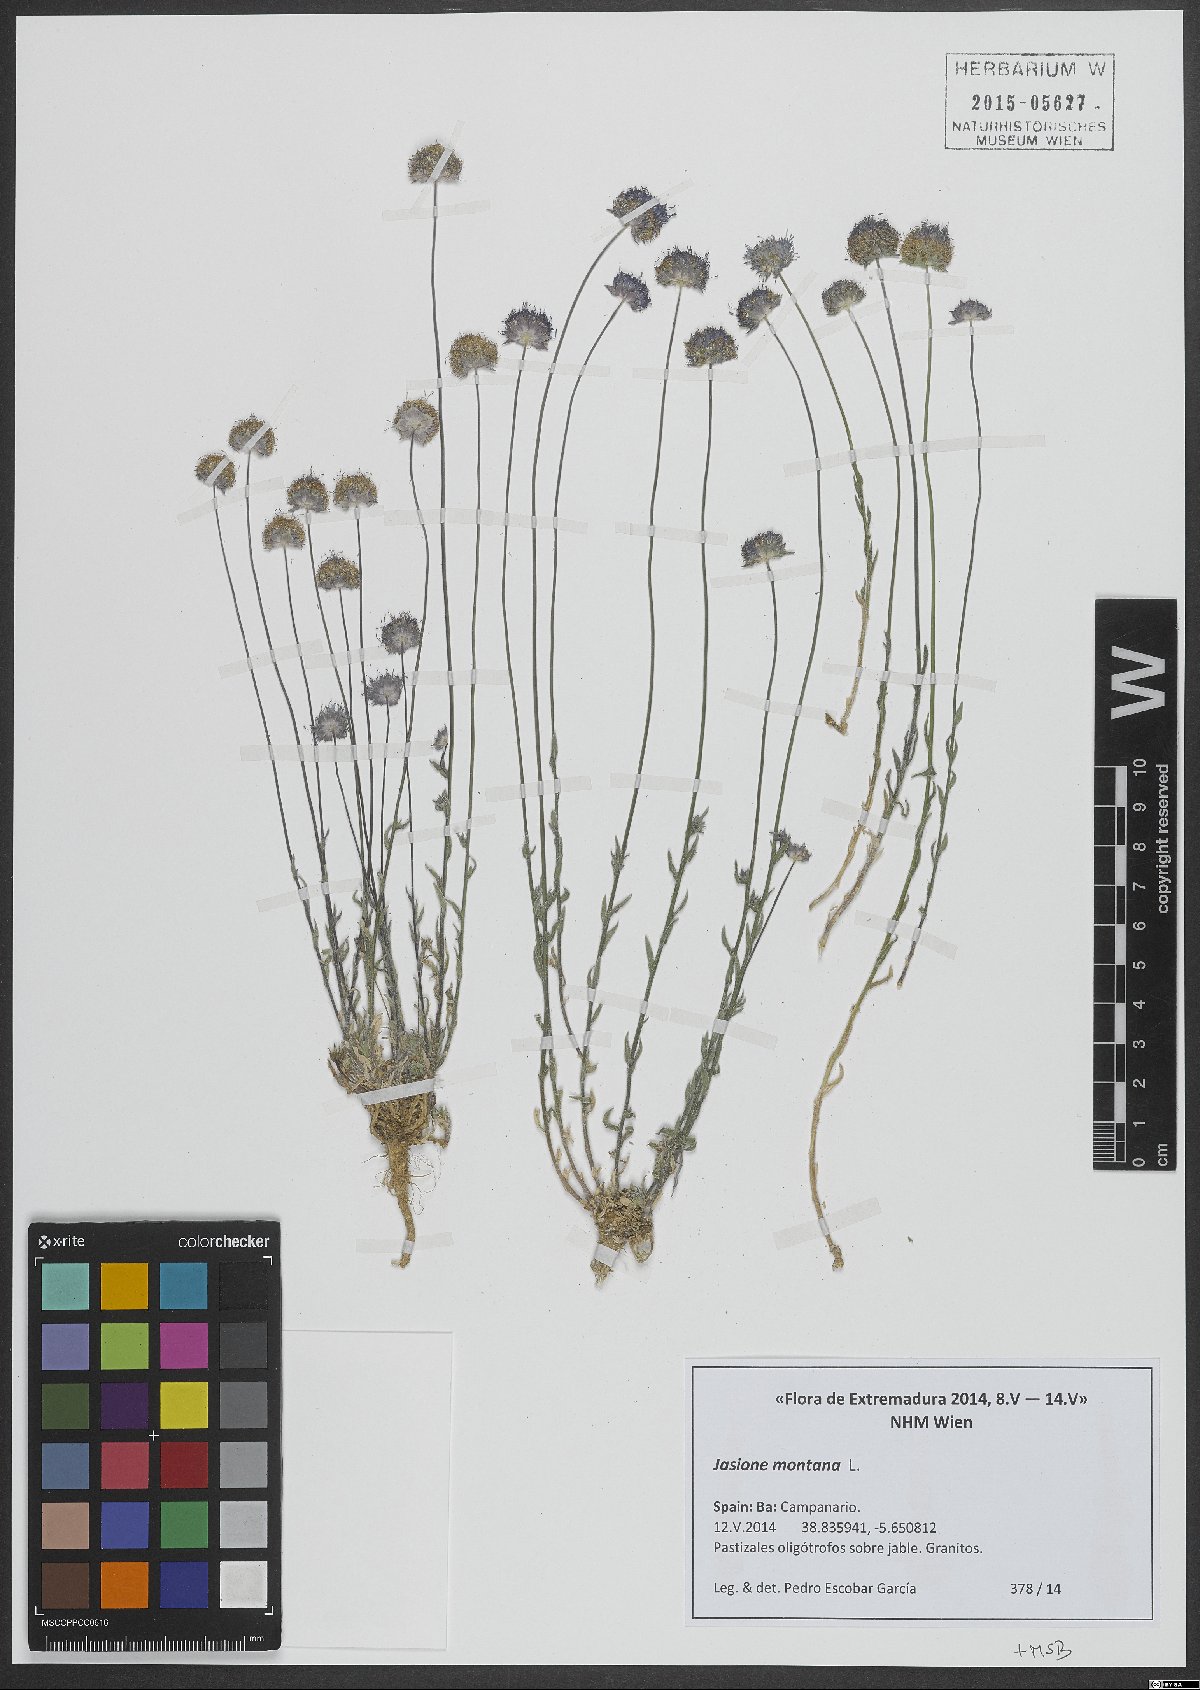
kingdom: Plantae
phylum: Tracheophyta
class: Magnoliopsida
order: Asterales
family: Campanulaceae
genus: Jasione
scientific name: Jasione montana
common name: Sheep's-bit
